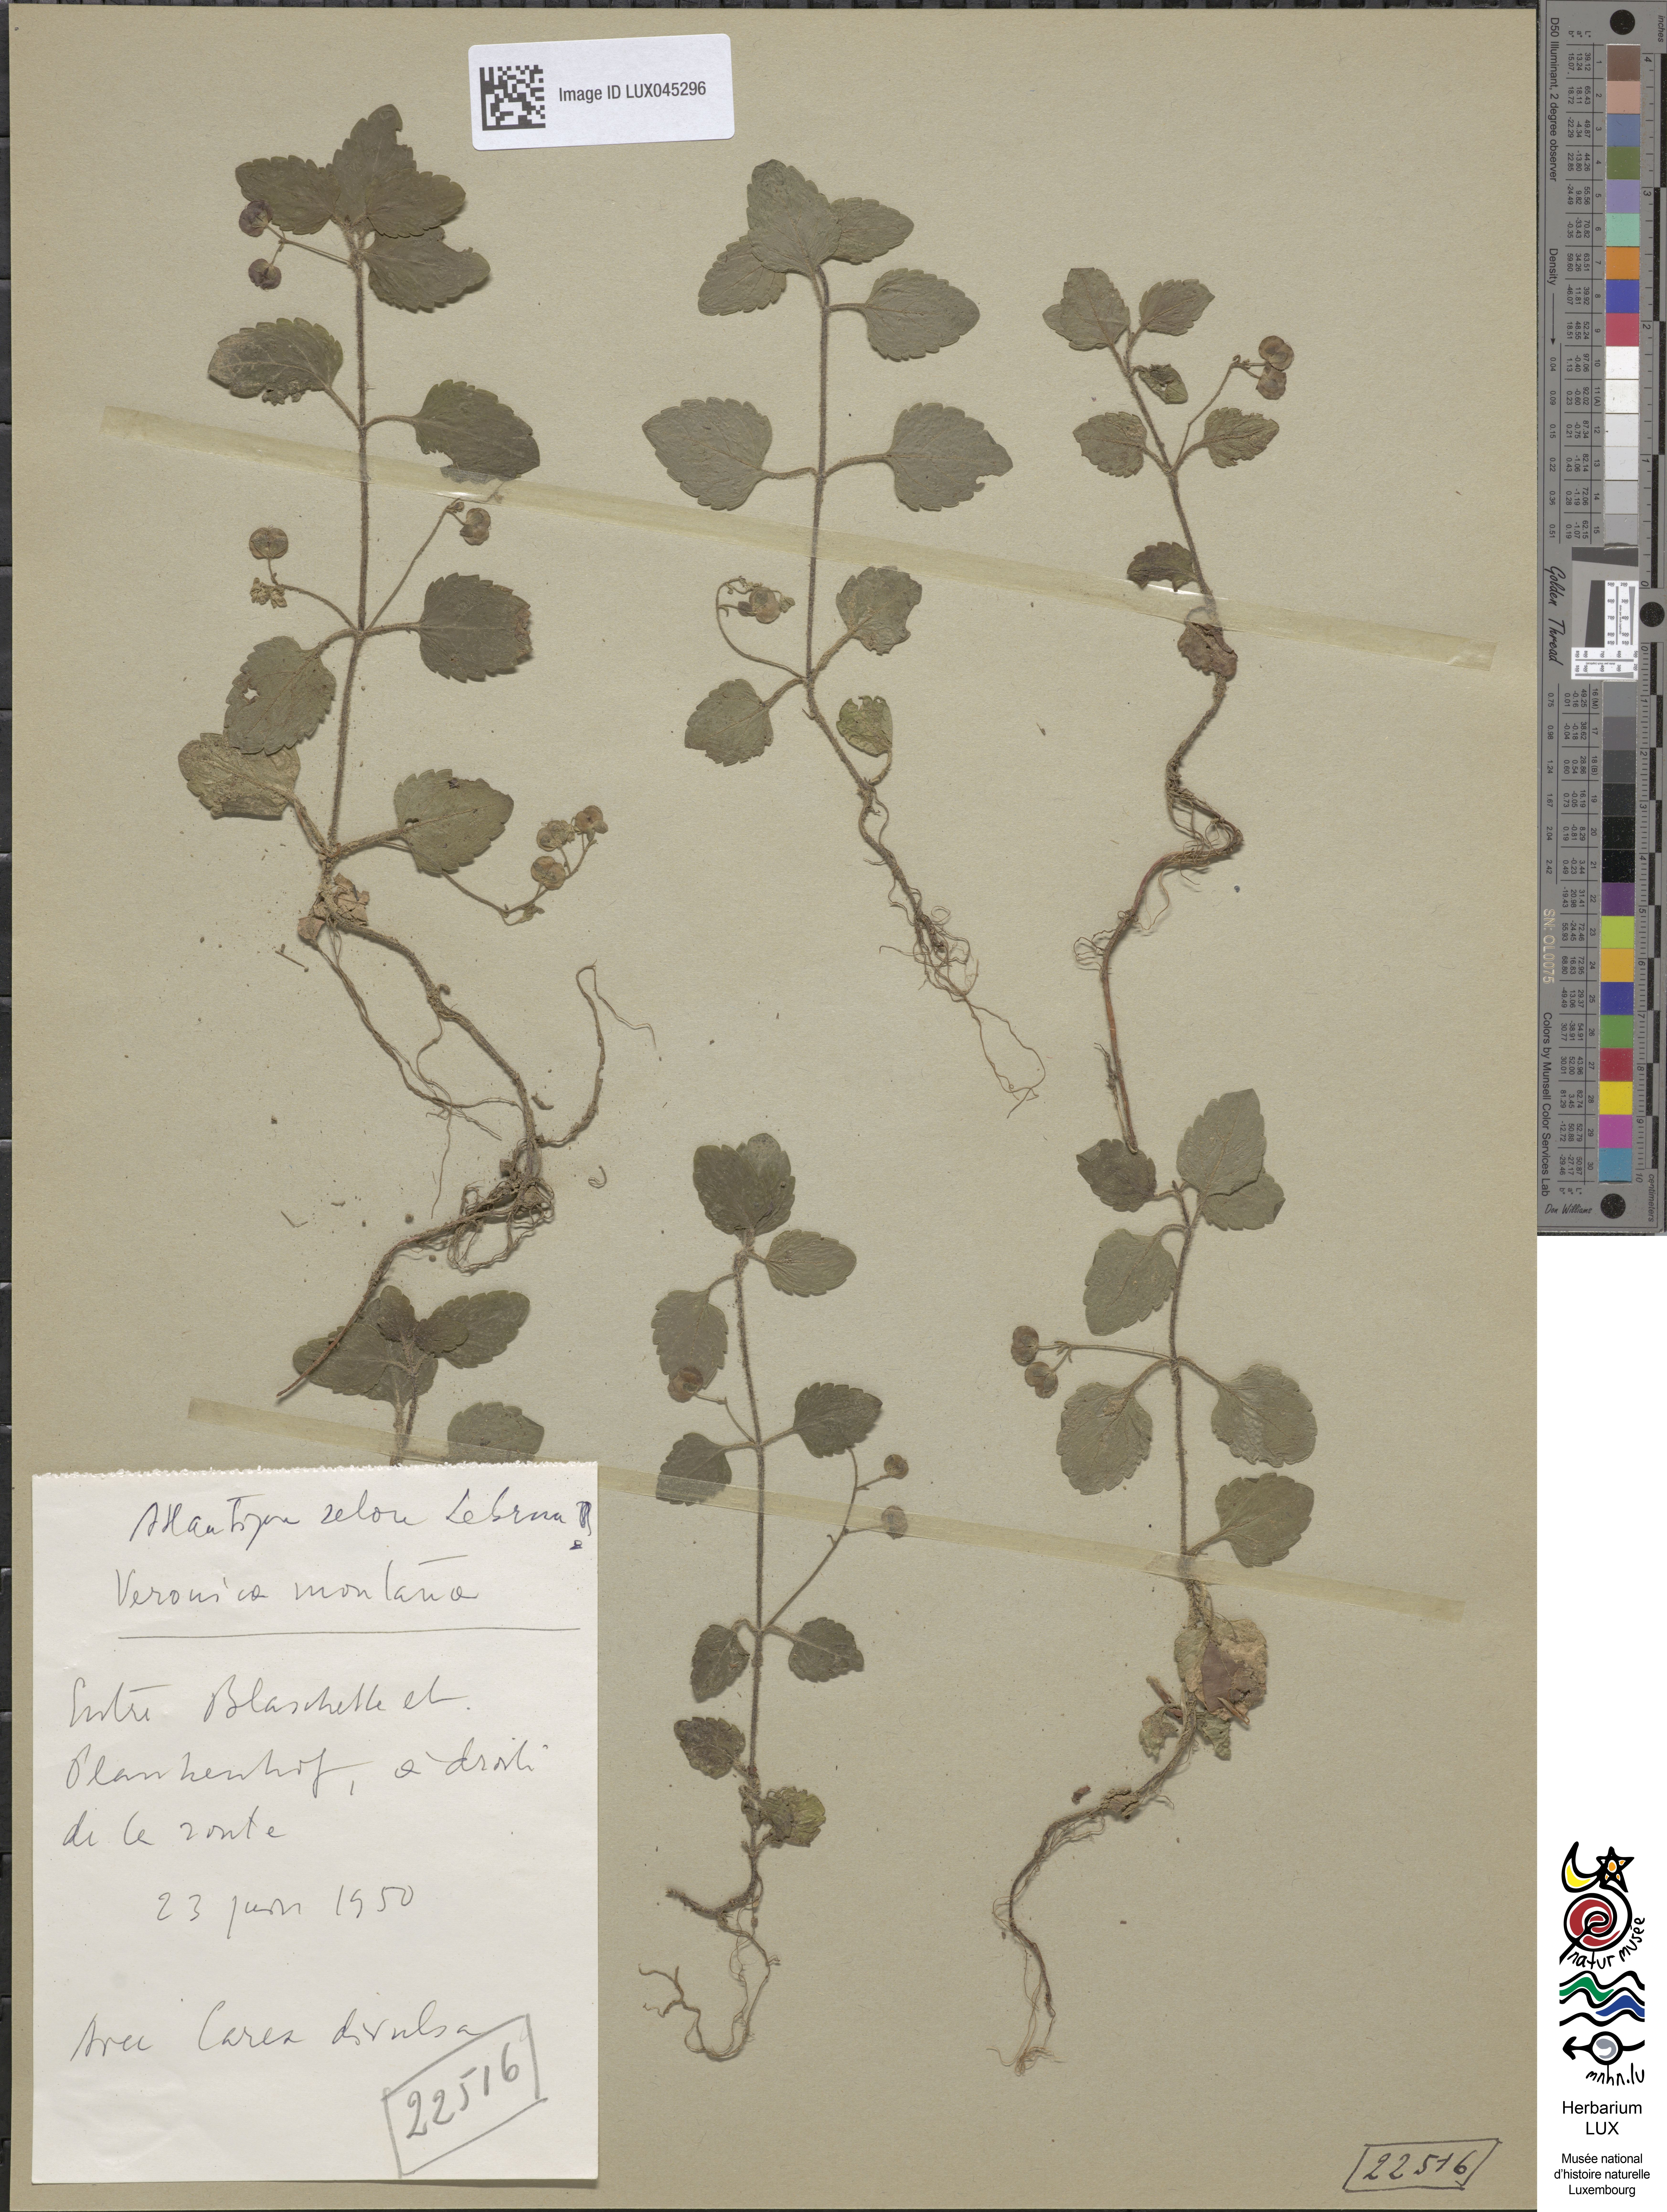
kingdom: Plantae
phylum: Tracheophyta
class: Magnoliopsida
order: Lamiales
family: Plantaginaceae
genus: Veronica
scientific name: Veronica montana
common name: Wood speedwell
